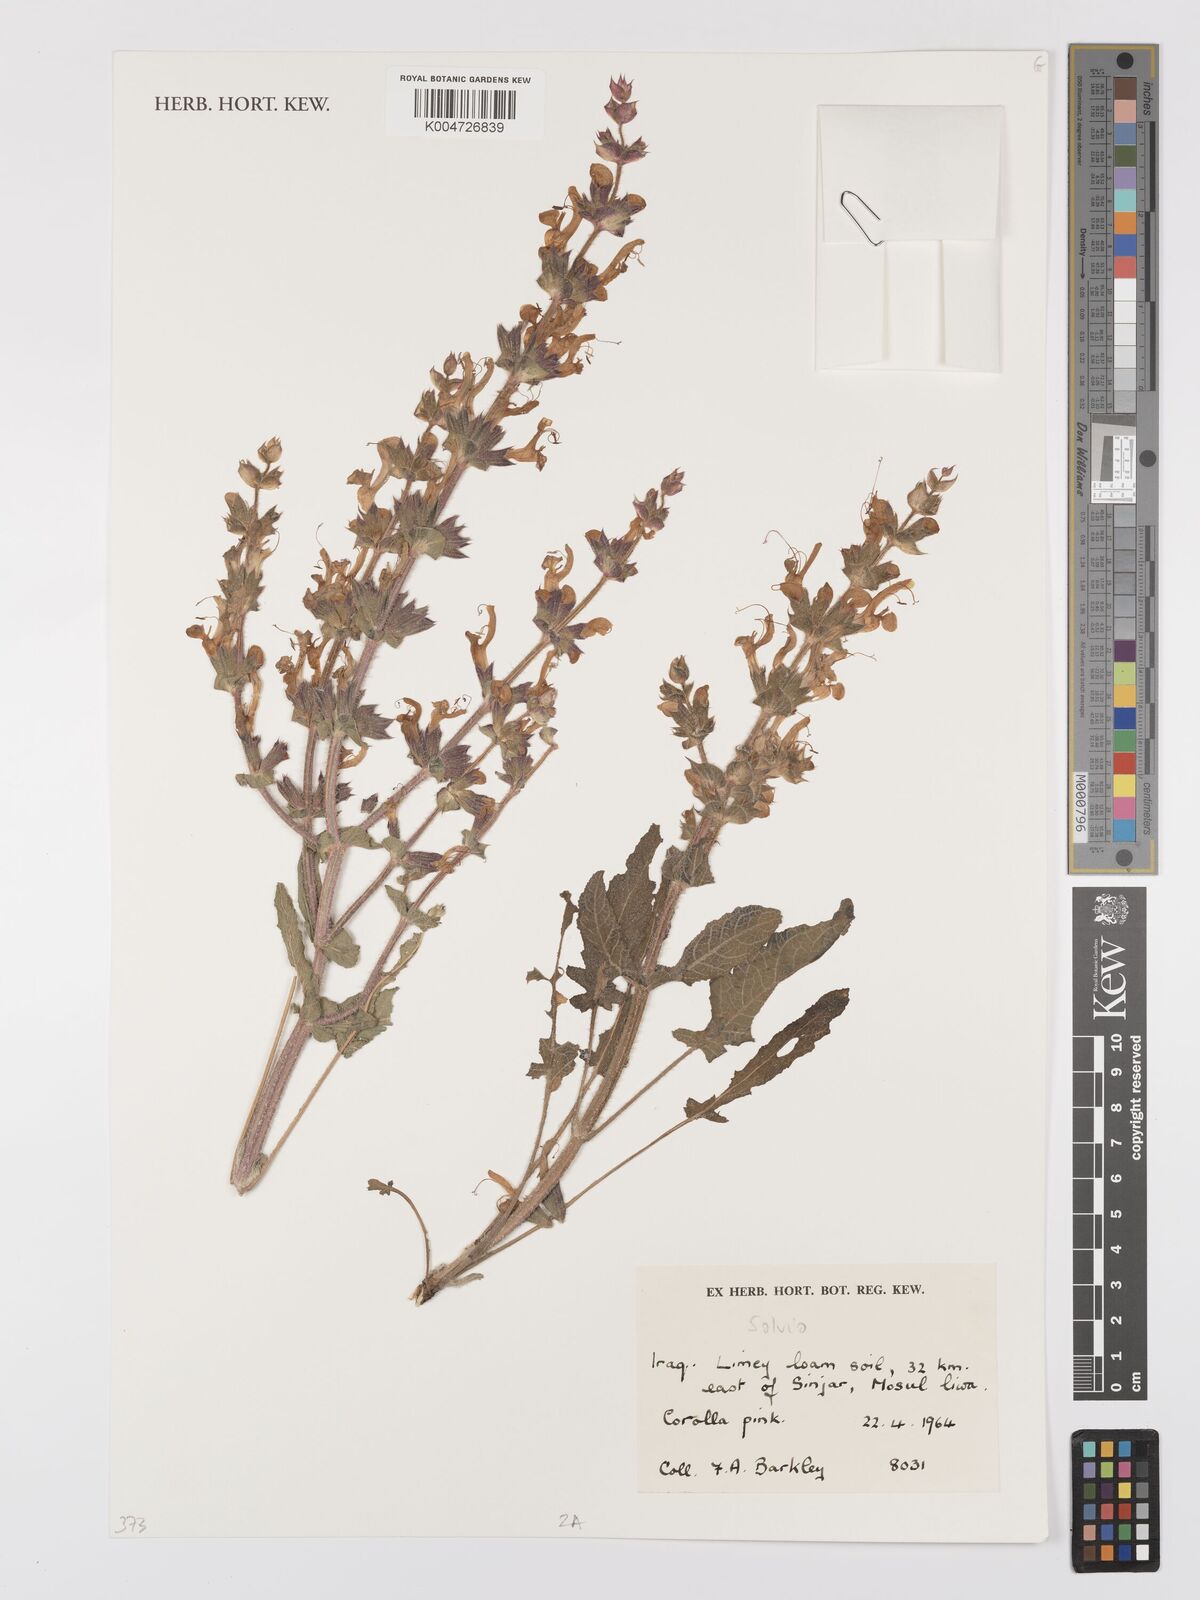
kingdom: Plantae
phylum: Tracheophyta
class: Magnoliopsida
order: Lamiales
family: Lamiaceae
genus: Salvia
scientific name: Salvia
